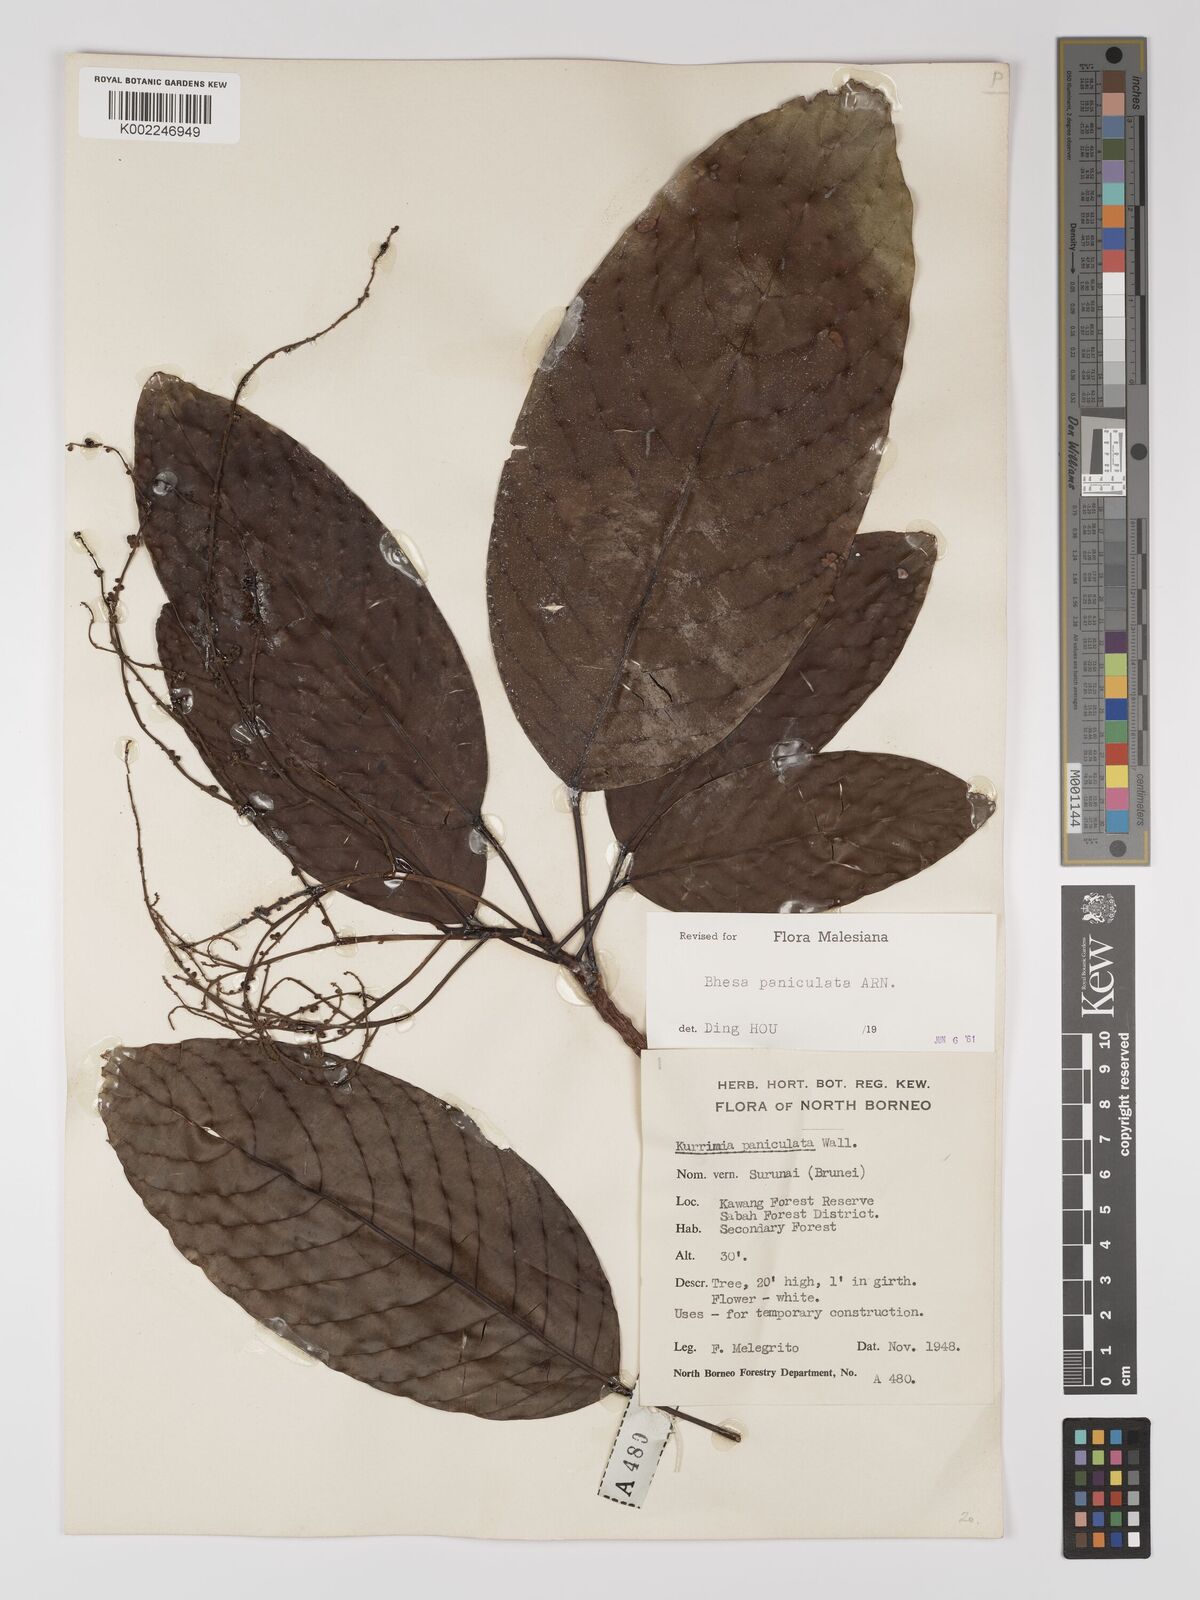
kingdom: Plantae
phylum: Tracheophyta
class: Magnoliopsida
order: Malpighiales
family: Centroplacaceae
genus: Bhesa
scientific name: Bhesa paniculata
